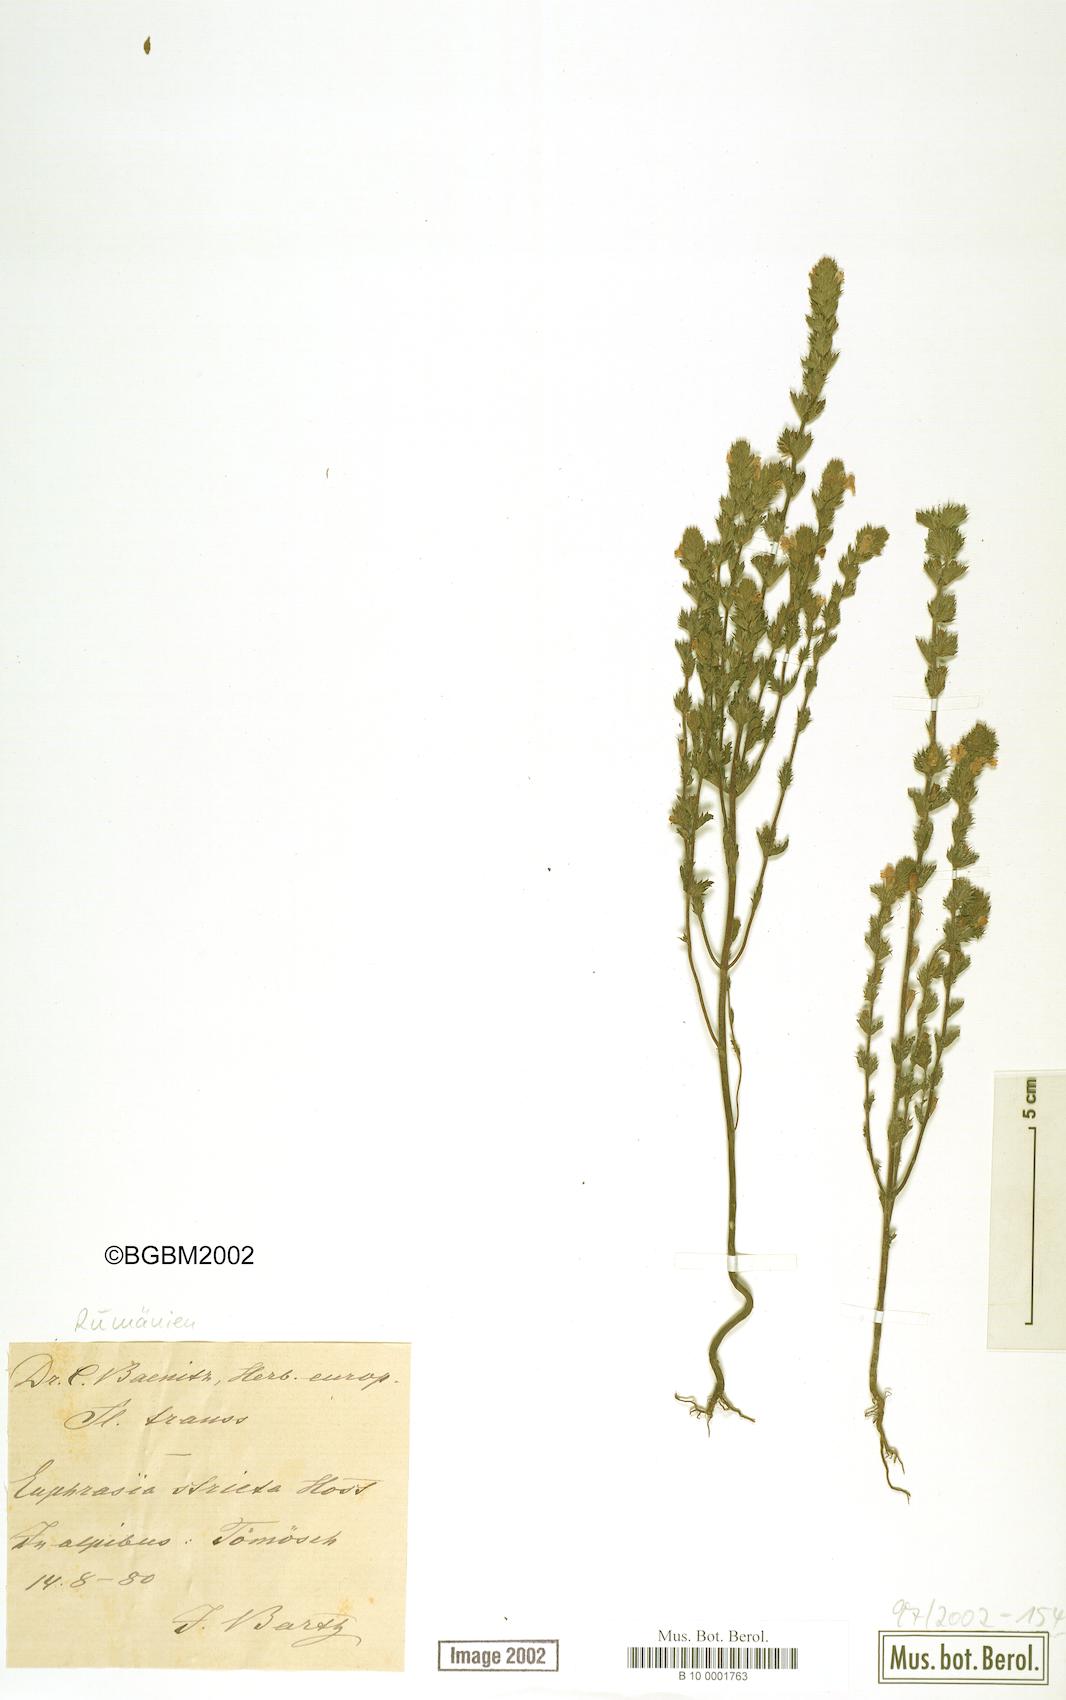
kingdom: Plantae
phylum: Tracheophyta
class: Magnoliopsida
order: Lamiales
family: Orobanchaceae
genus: Euphrasia
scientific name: Euphrasia stricta
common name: Drug eyebright
